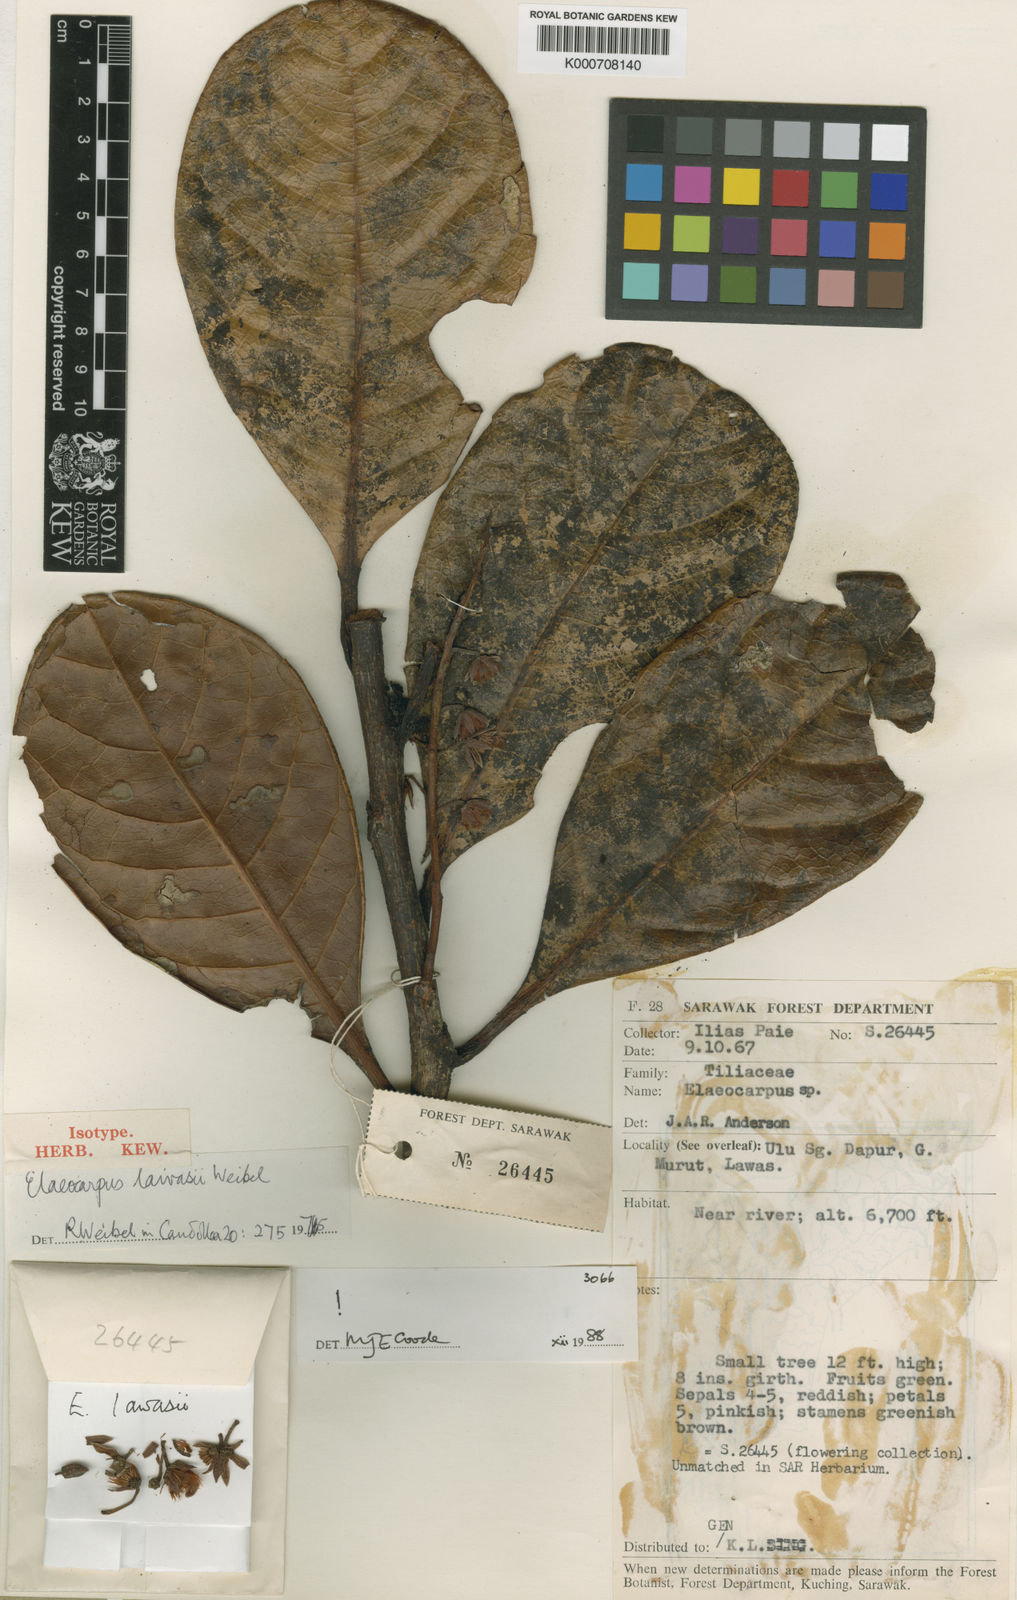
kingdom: Plantae
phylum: Tracheophyta
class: Magnoliopsida
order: Oxalidales
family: Elaeocarpaceae
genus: Elaeocarpus
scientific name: Elaeocarpus lawasii
